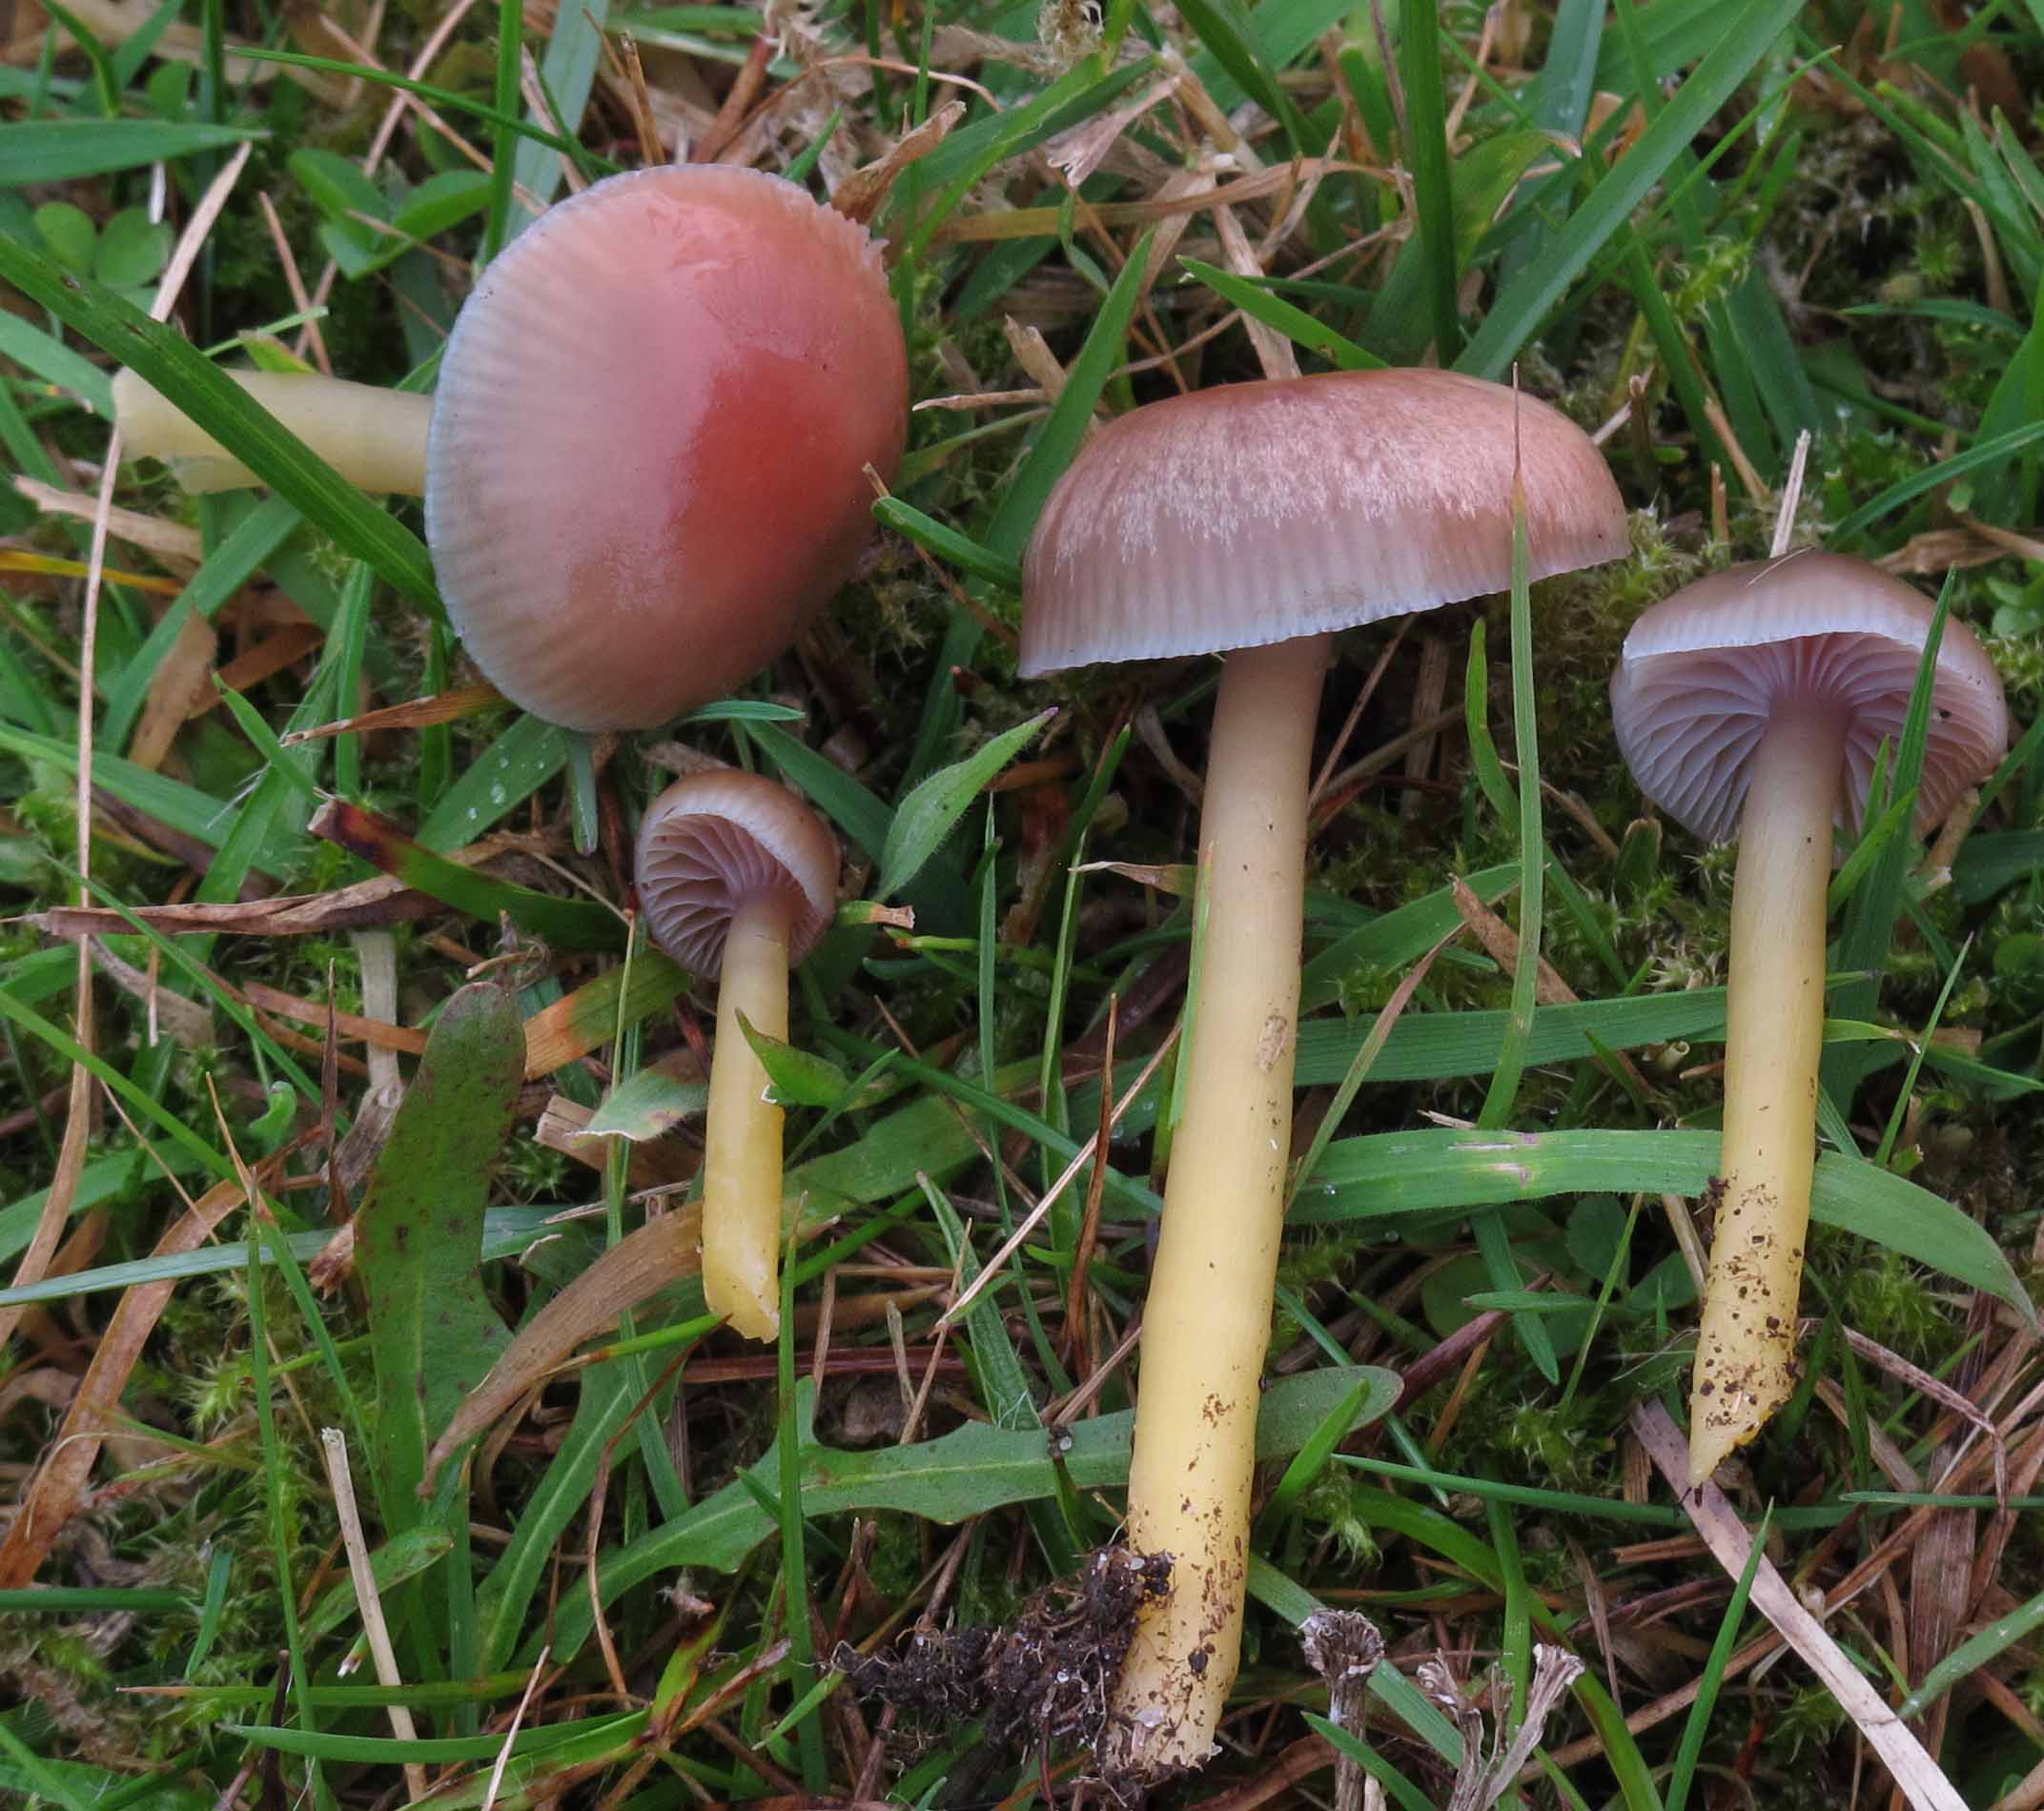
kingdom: Fungi
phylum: Basidiomycota
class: Agaricomycetes
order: Agaricales
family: Hygrophoraceae
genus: Gliophorus
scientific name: Gliophorus laetus
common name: brusk-vokshat
